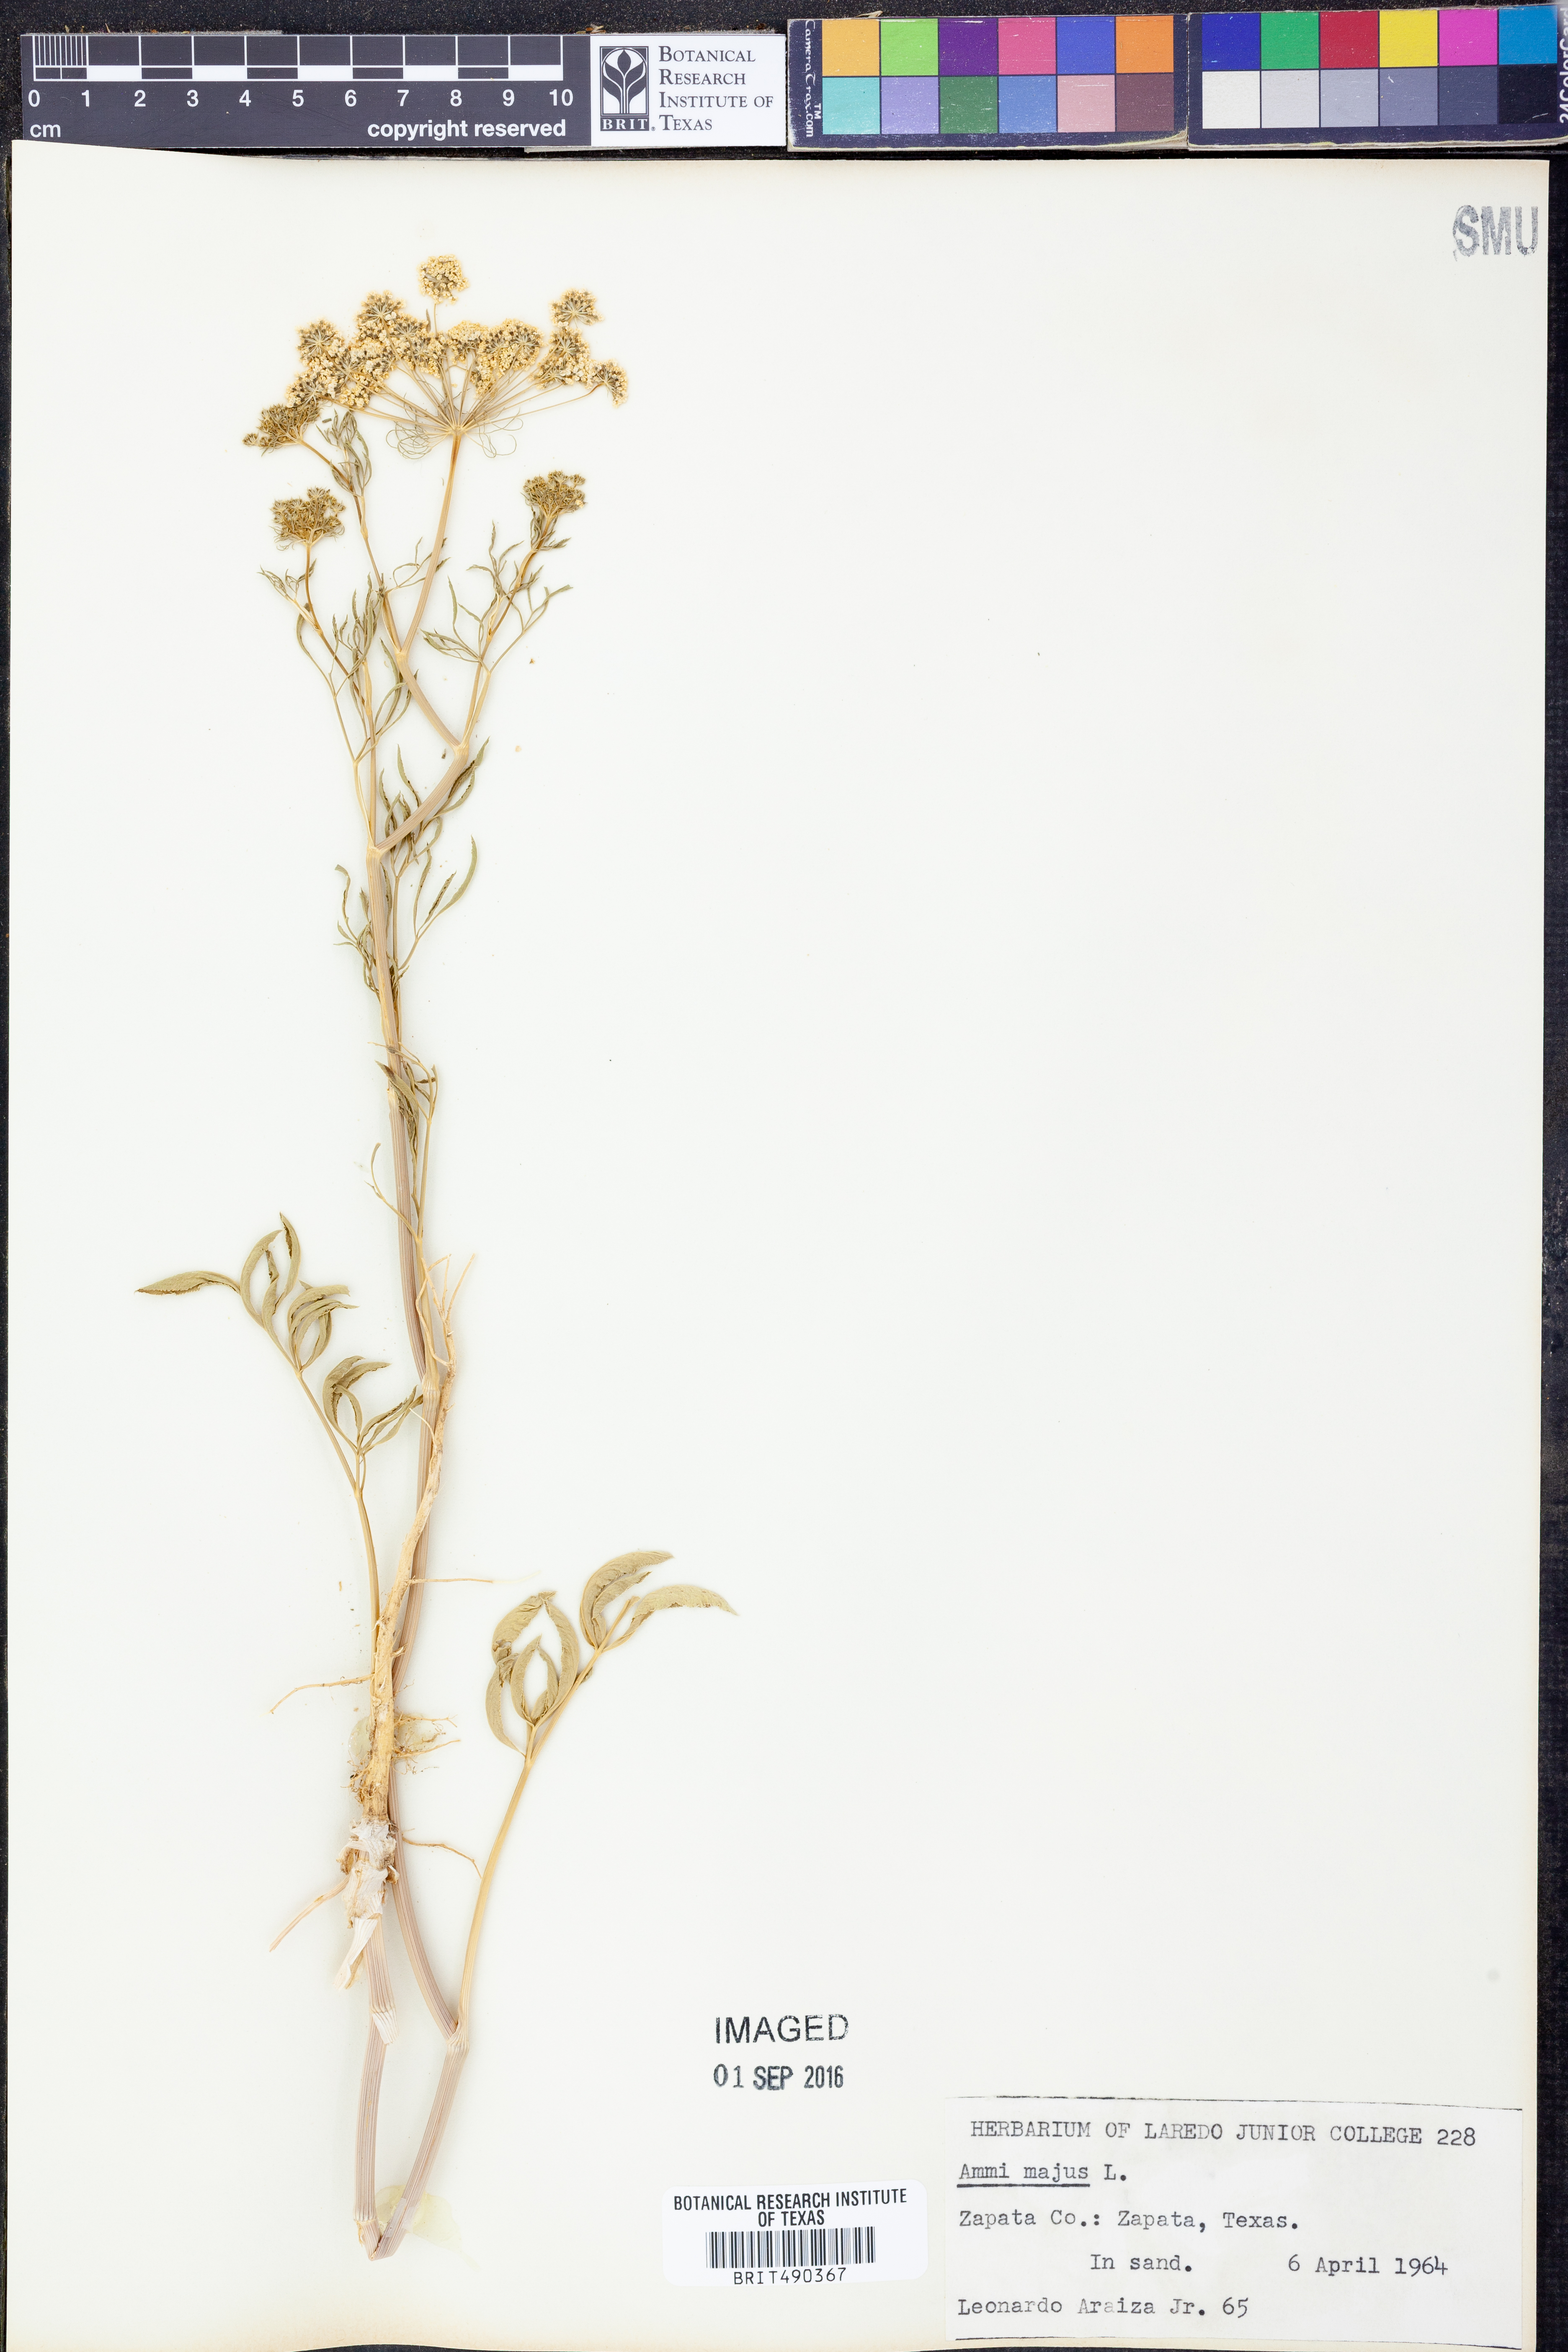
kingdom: Plantae
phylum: Tracheophyta
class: Magnoliopsida
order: Apiales
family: Apiaceae
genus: Ammi
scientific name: Ammi majus
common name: Bullwort
